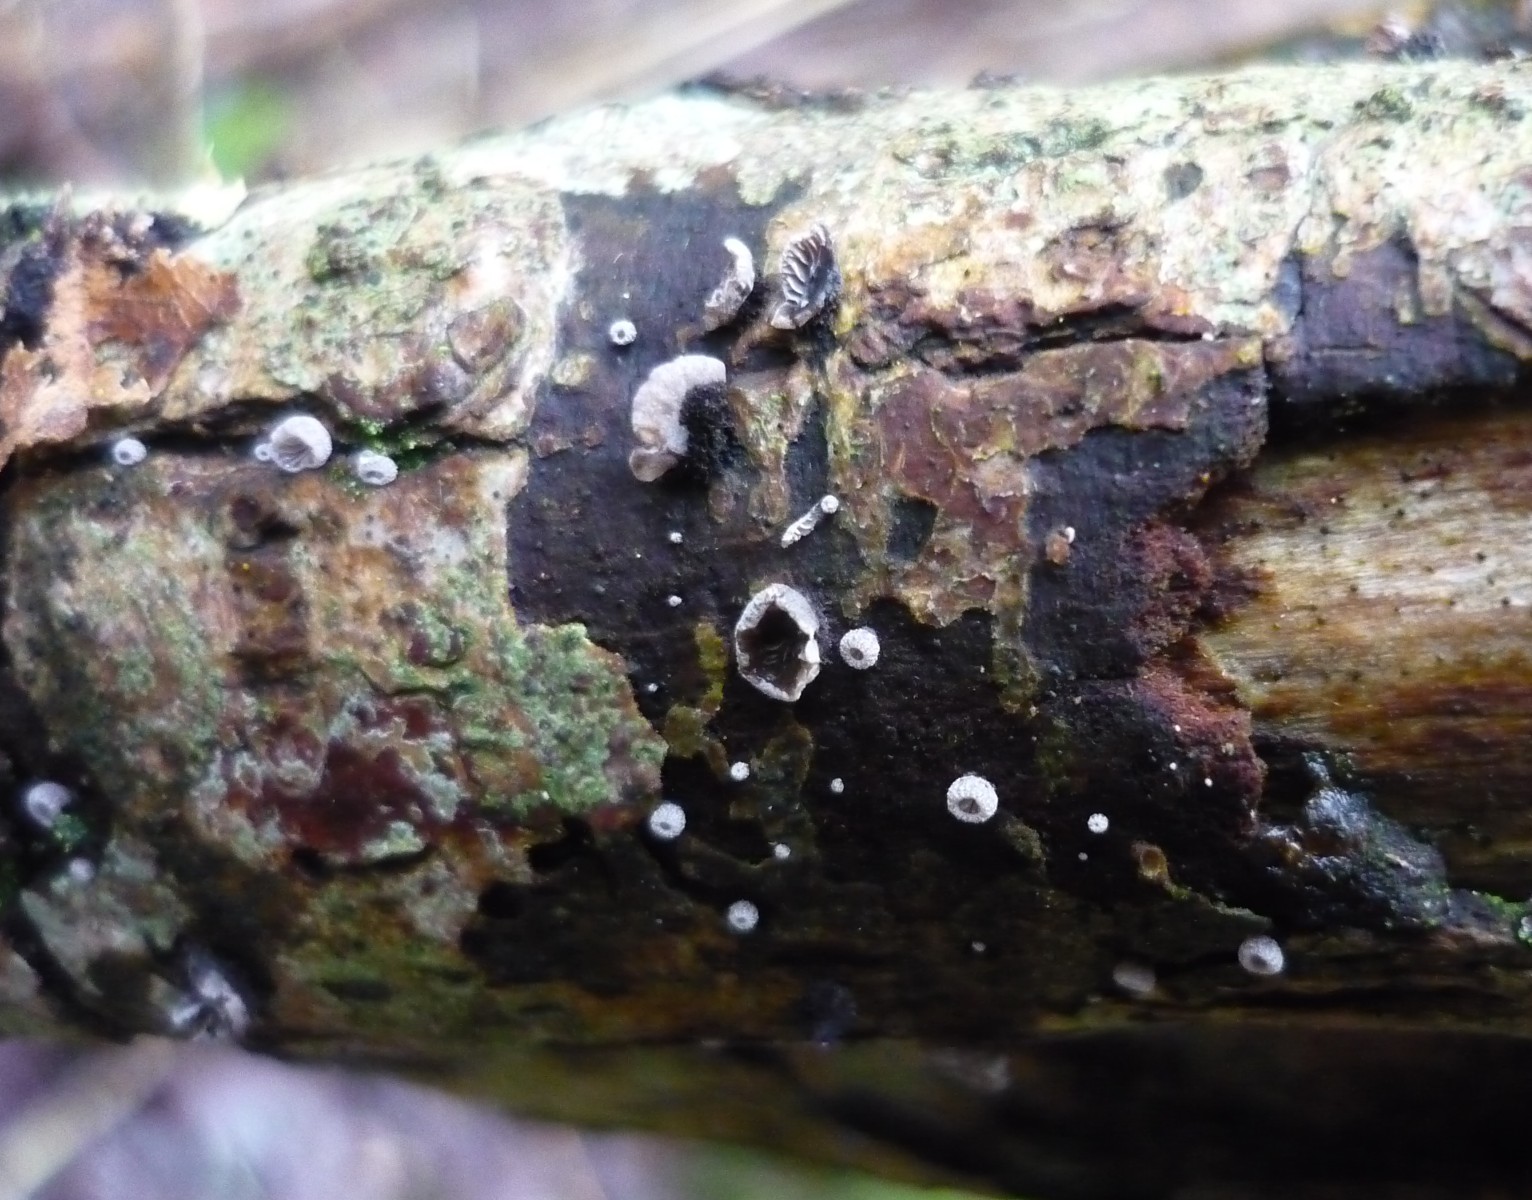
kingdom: Fungi
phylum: Basidiomycota
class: Agaricomycetes
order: Agaricales
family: Pleurotaceae
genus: Resupinatus
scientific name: Resupinatus trichotis
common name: mørkfiltet barkhat
